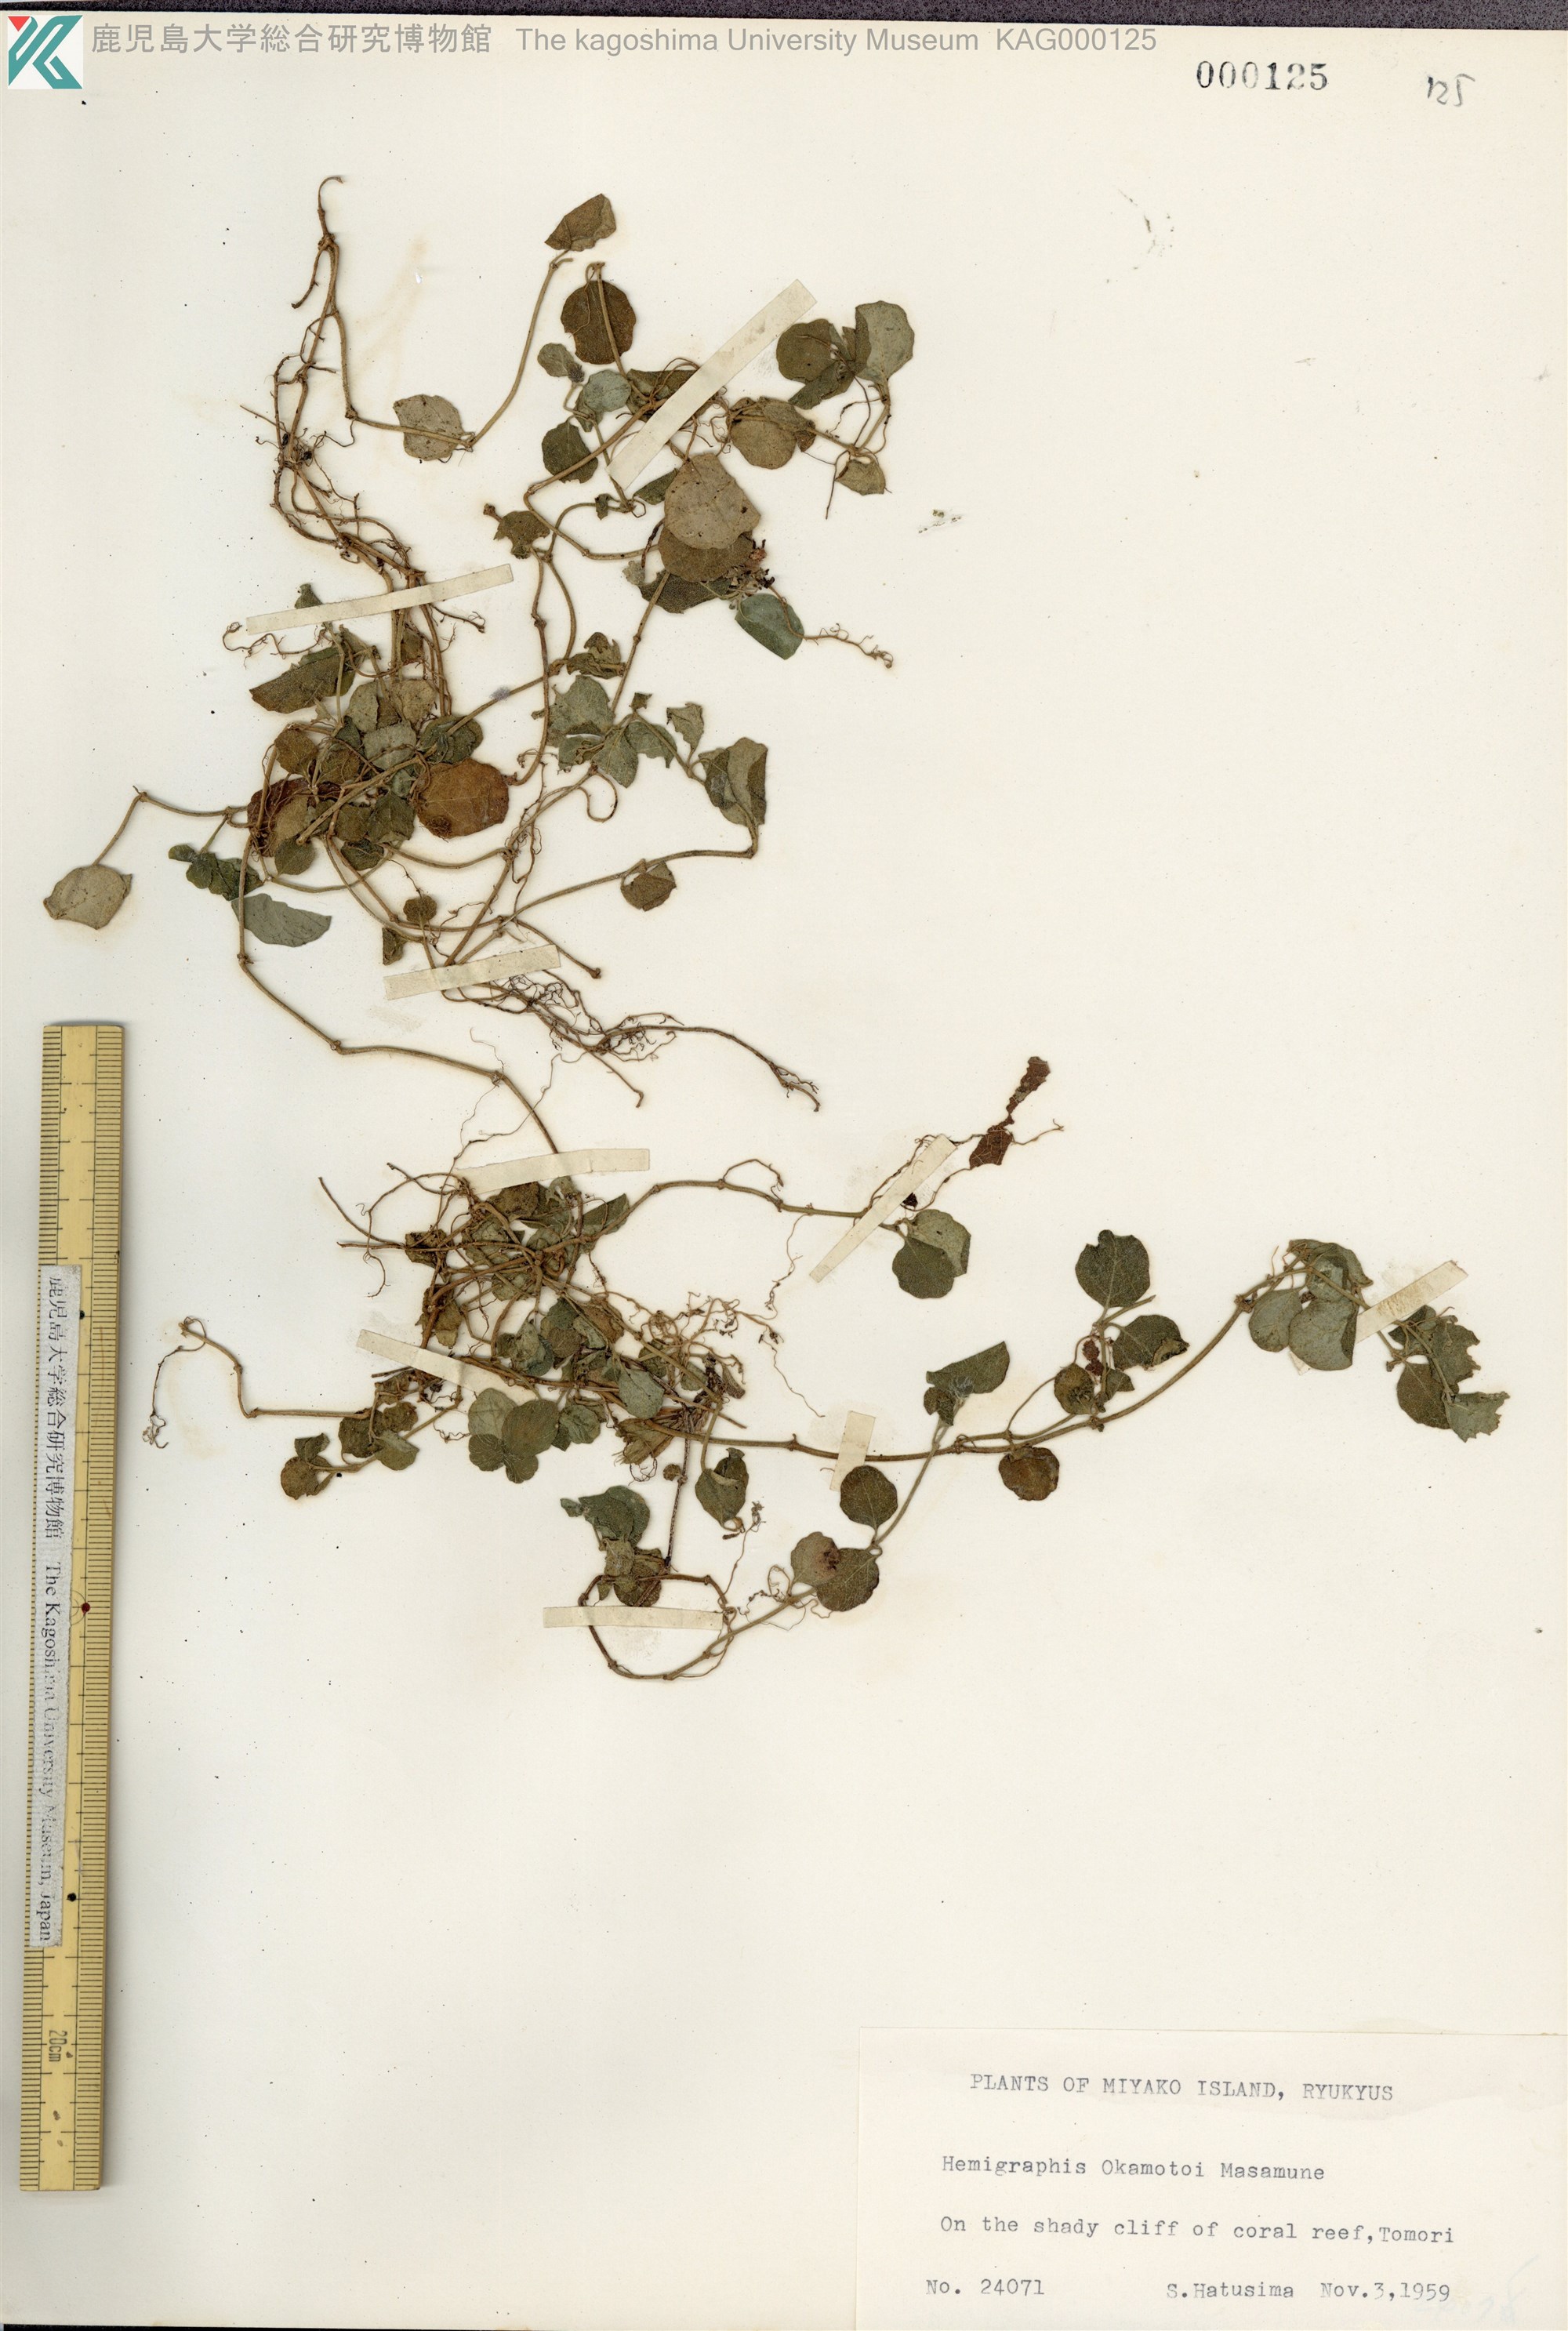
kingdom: Plantae
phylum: Tracheophyta
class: Magnoliopsida
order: Lamiales
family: Acanthaceae
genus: Hemigraphis
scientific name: Hemigraphis reptans
